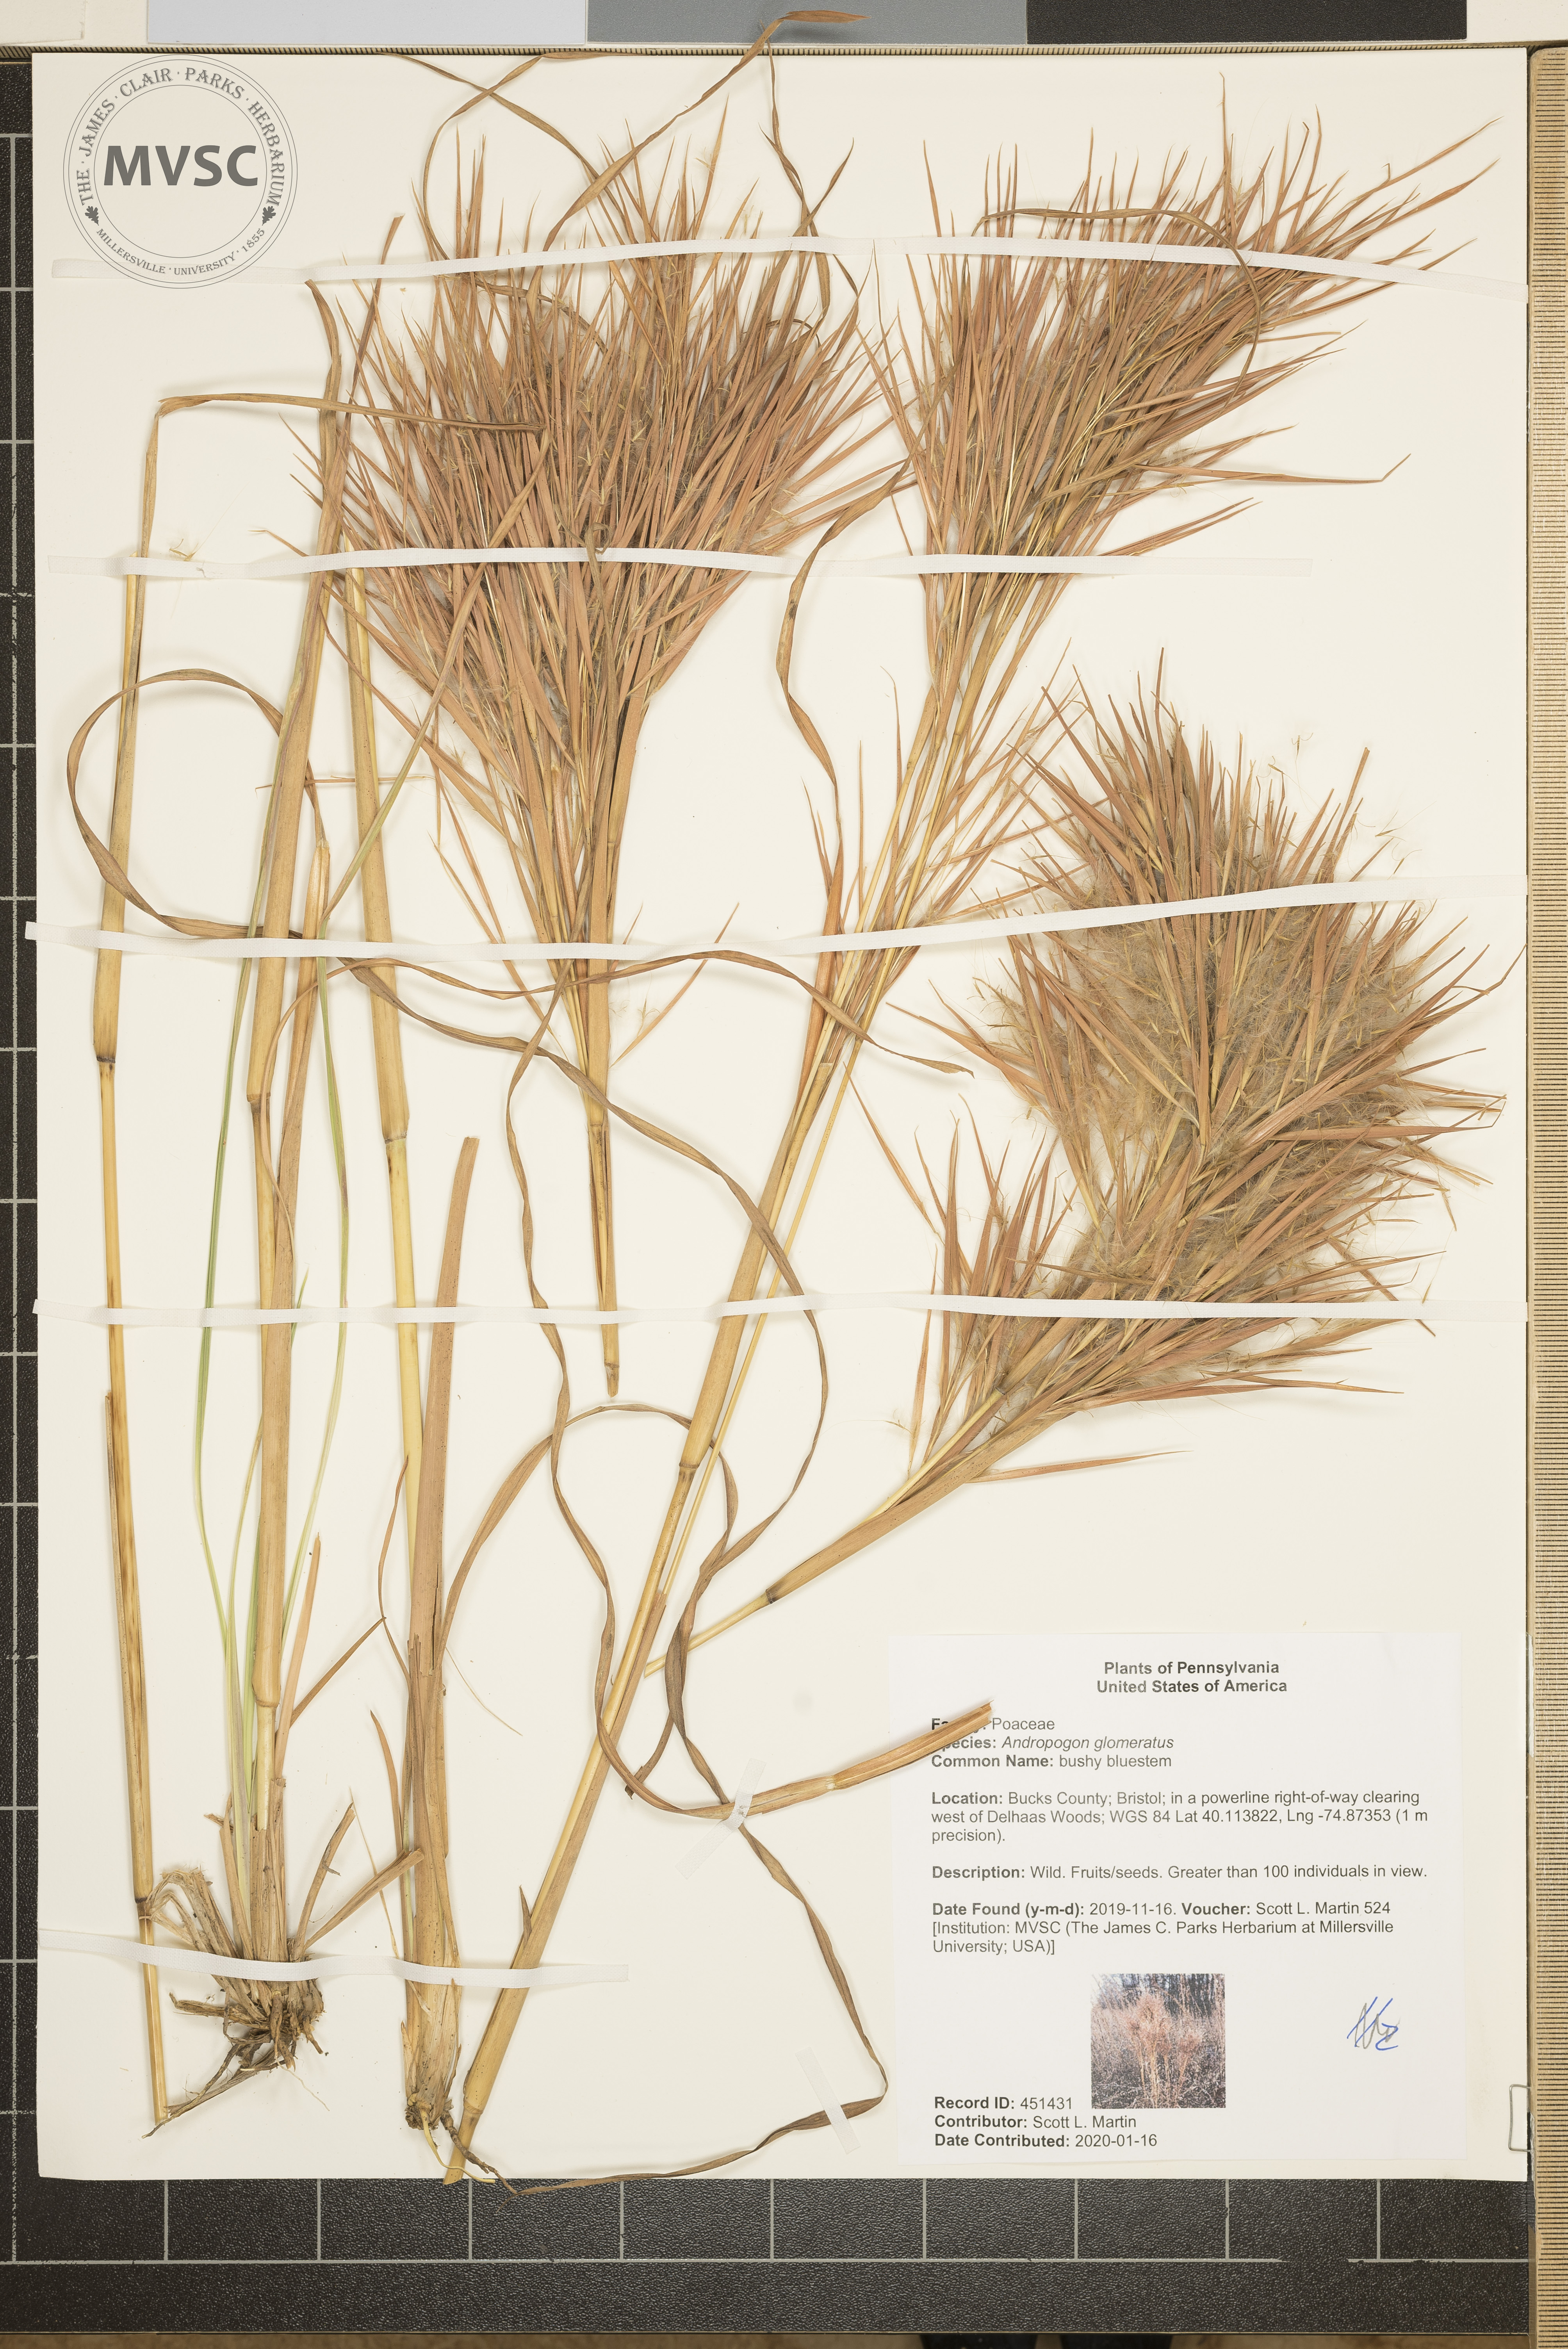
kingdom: Plantae
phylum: Tracheophyta
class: Liliopsida
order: Poales
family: Poaceae
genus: Andropogon
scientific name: Andropogon glomeratus
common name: bushy bluestem
